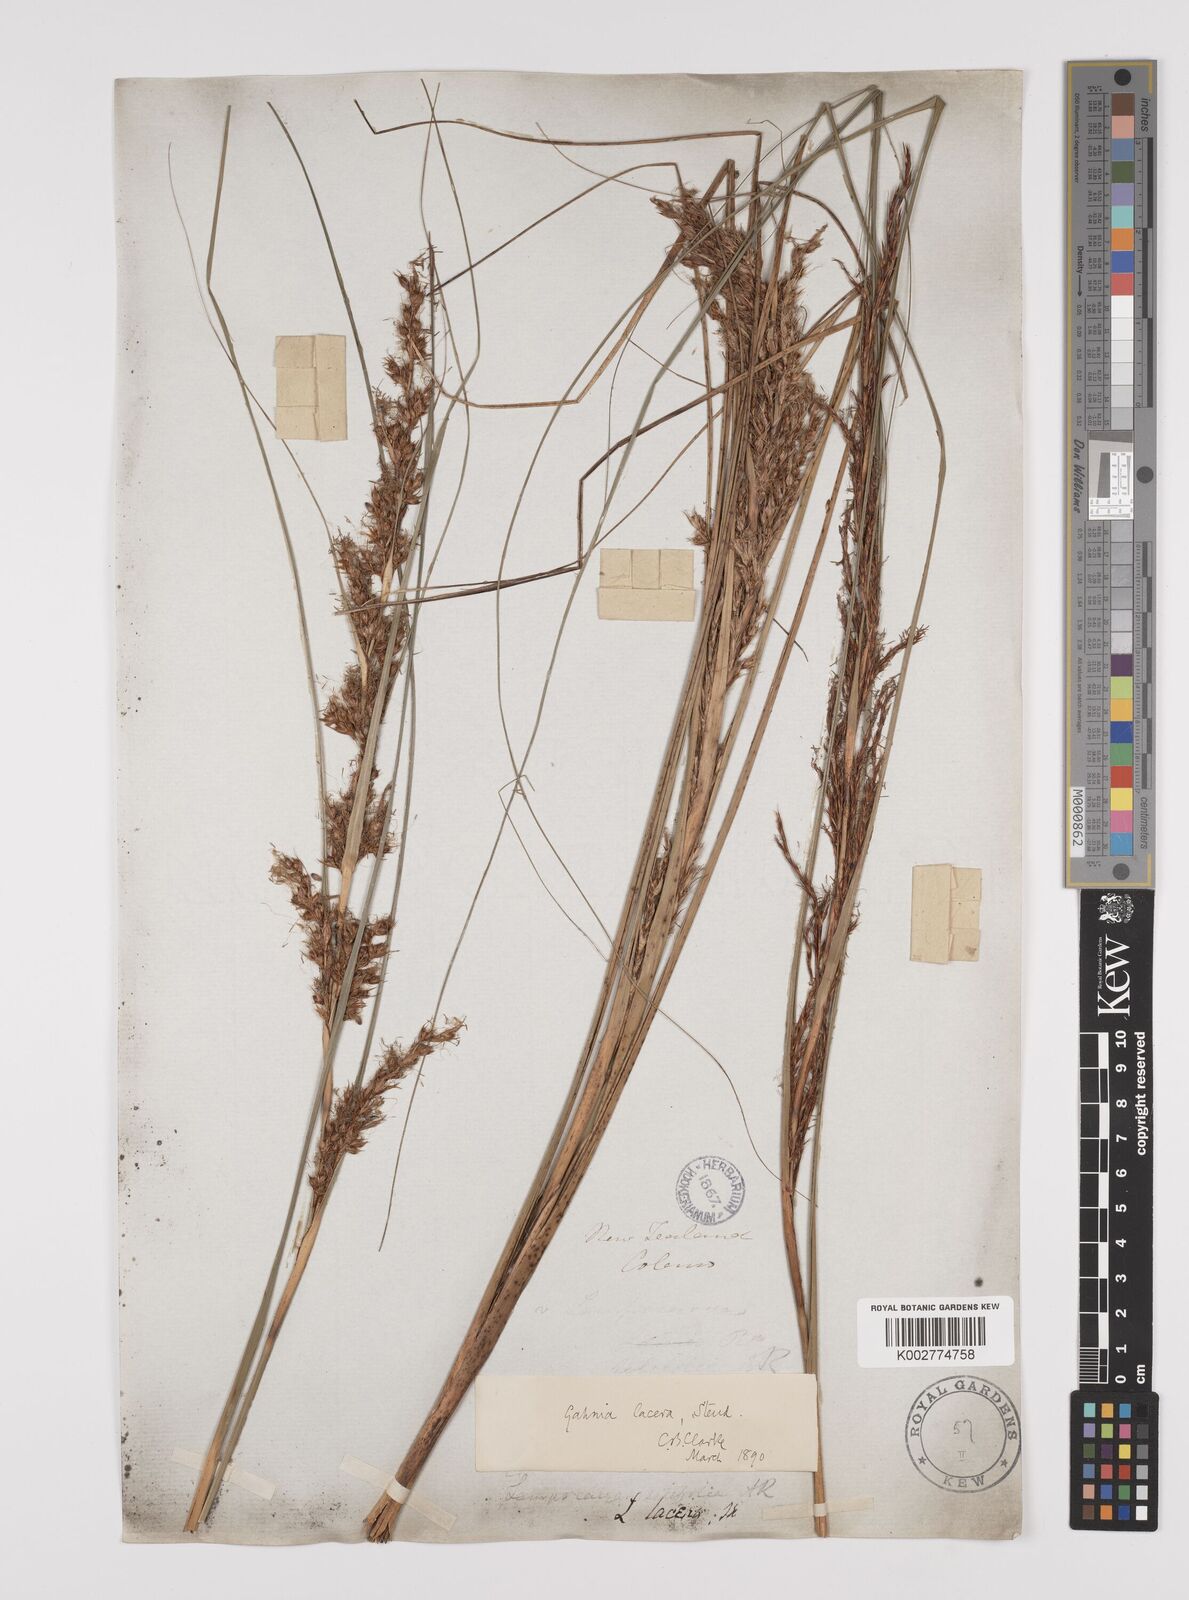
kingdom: Plantae
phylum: Tracheophyta
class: Liliopsida
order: Poales
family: Cyperaceae
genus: Gahnia
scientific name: Gahnia lacera
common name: Sawsedge
